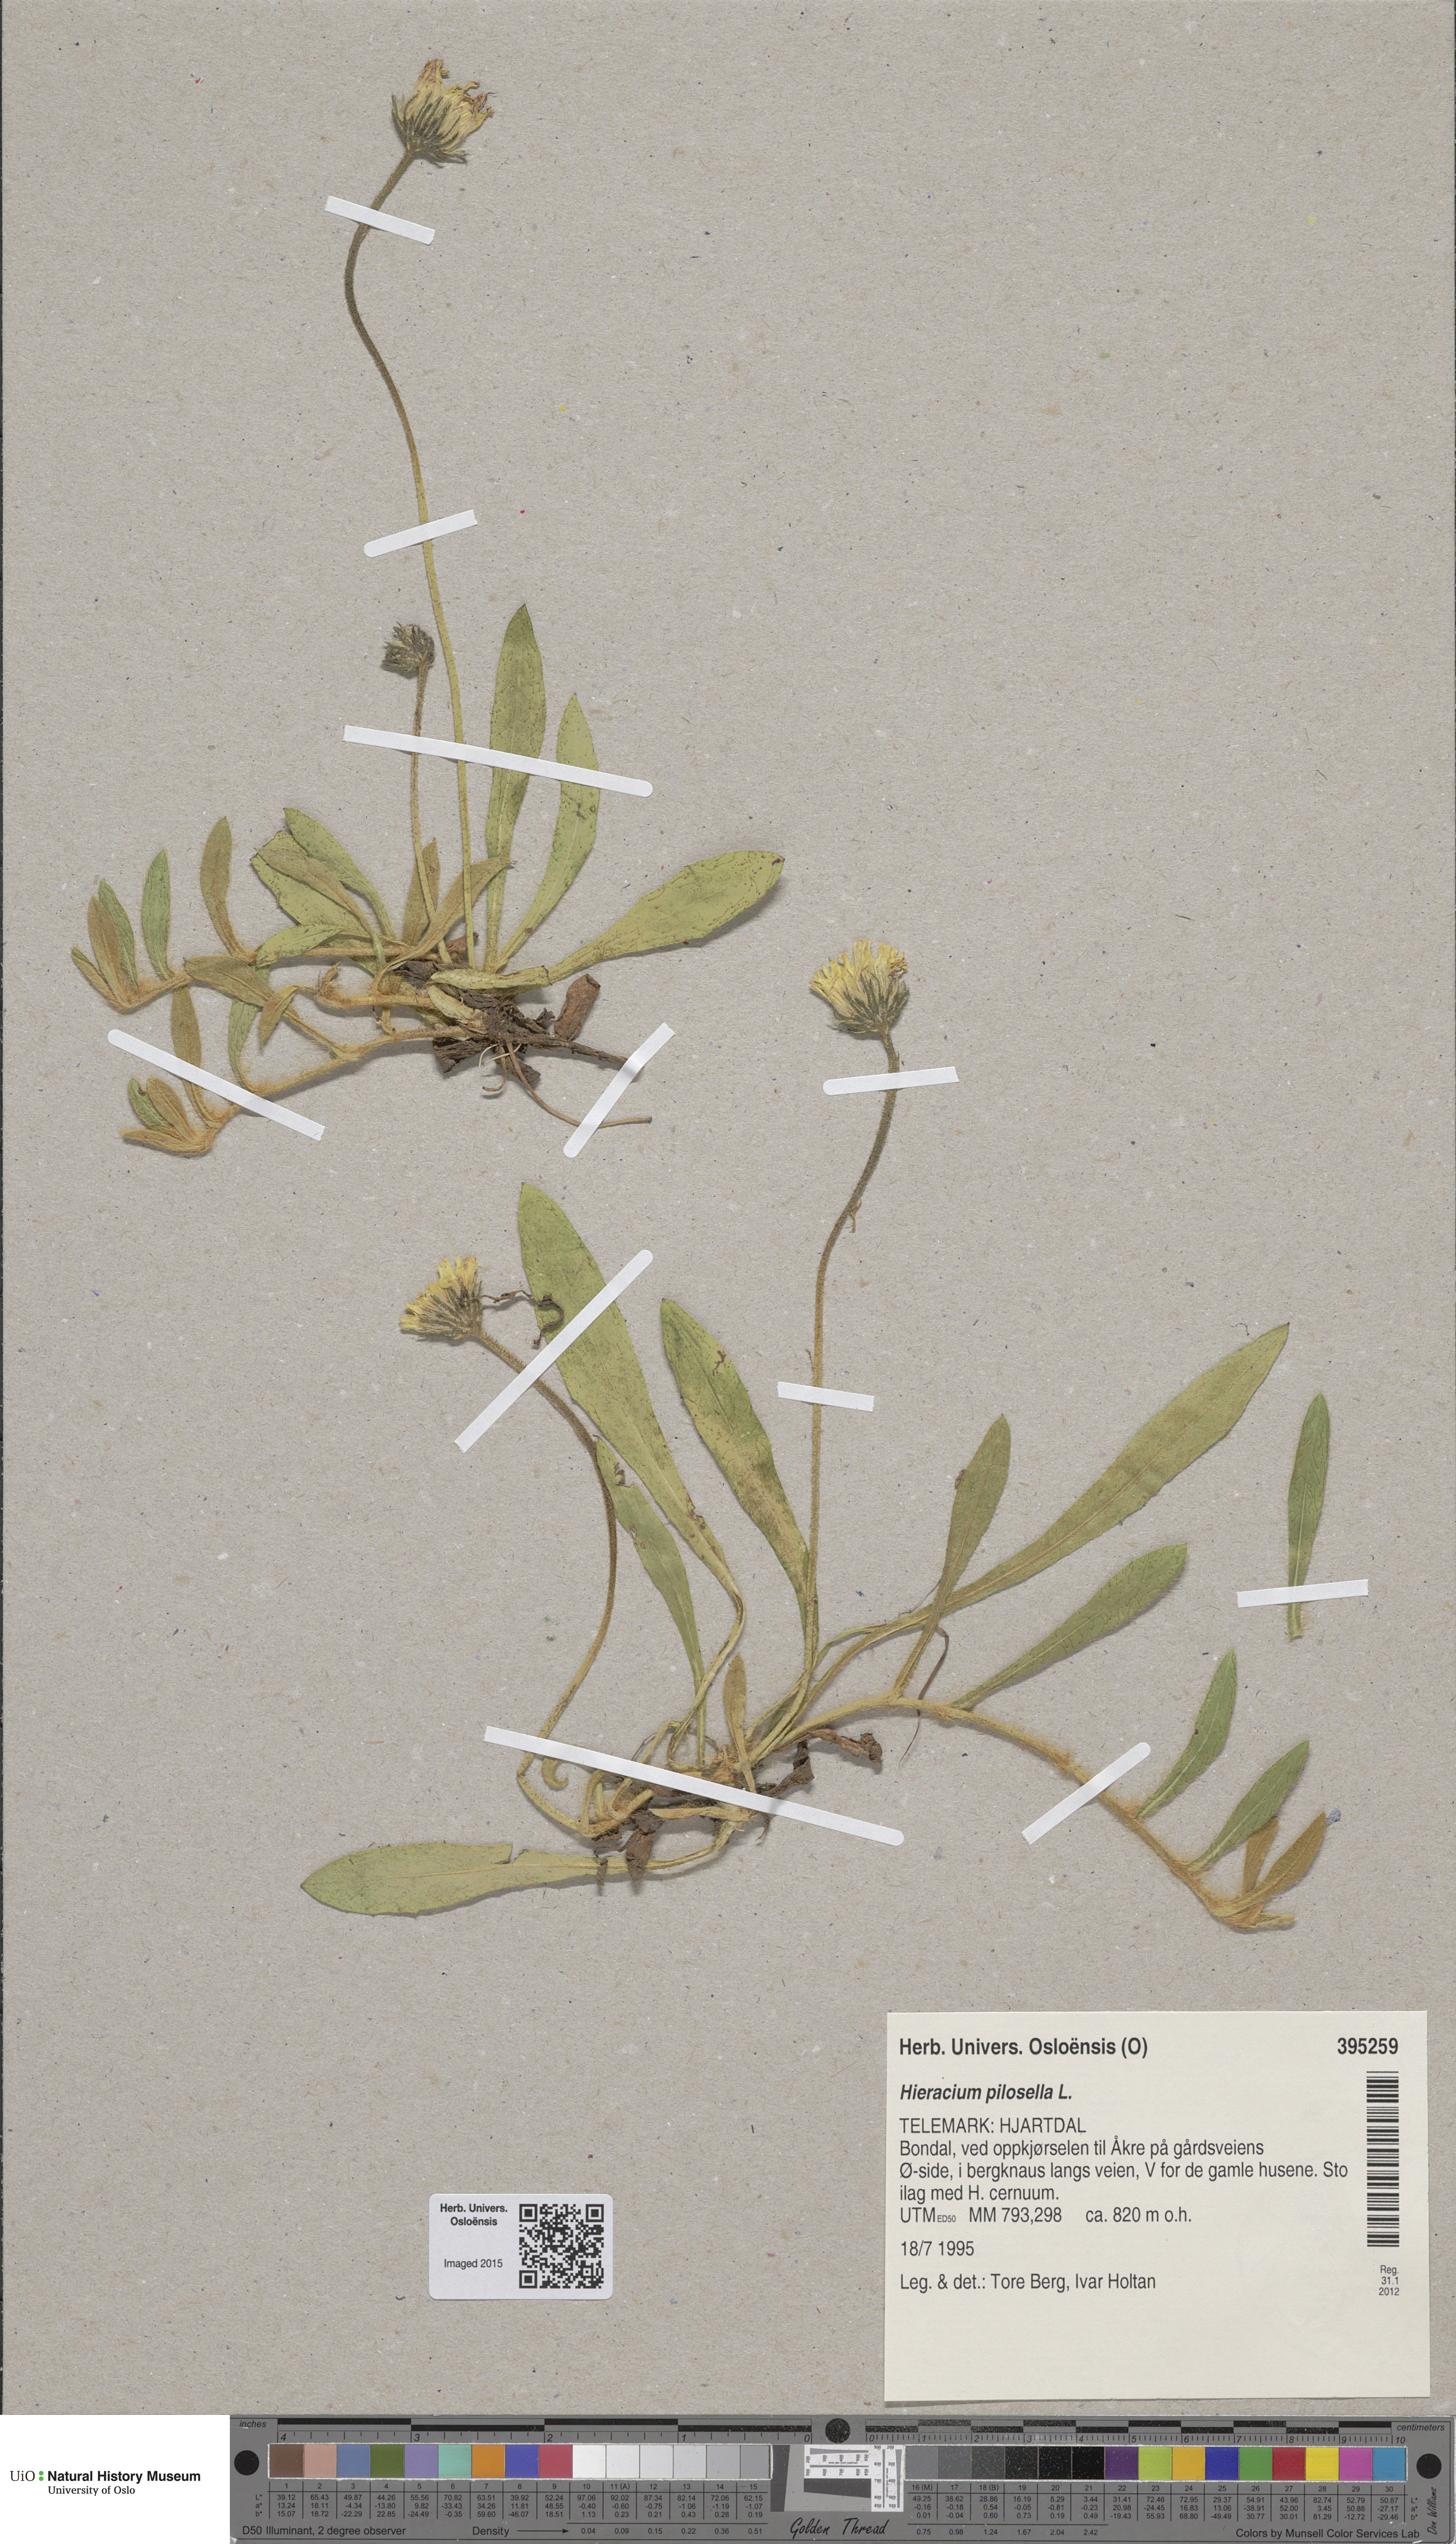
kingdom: Plantae
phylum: Tracheophyta
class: Magnoliopsida
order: Asterales
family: Asteraceae
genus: Pilosella
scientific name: Pilosella officinarum
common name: Mouse-ear hawkweed
